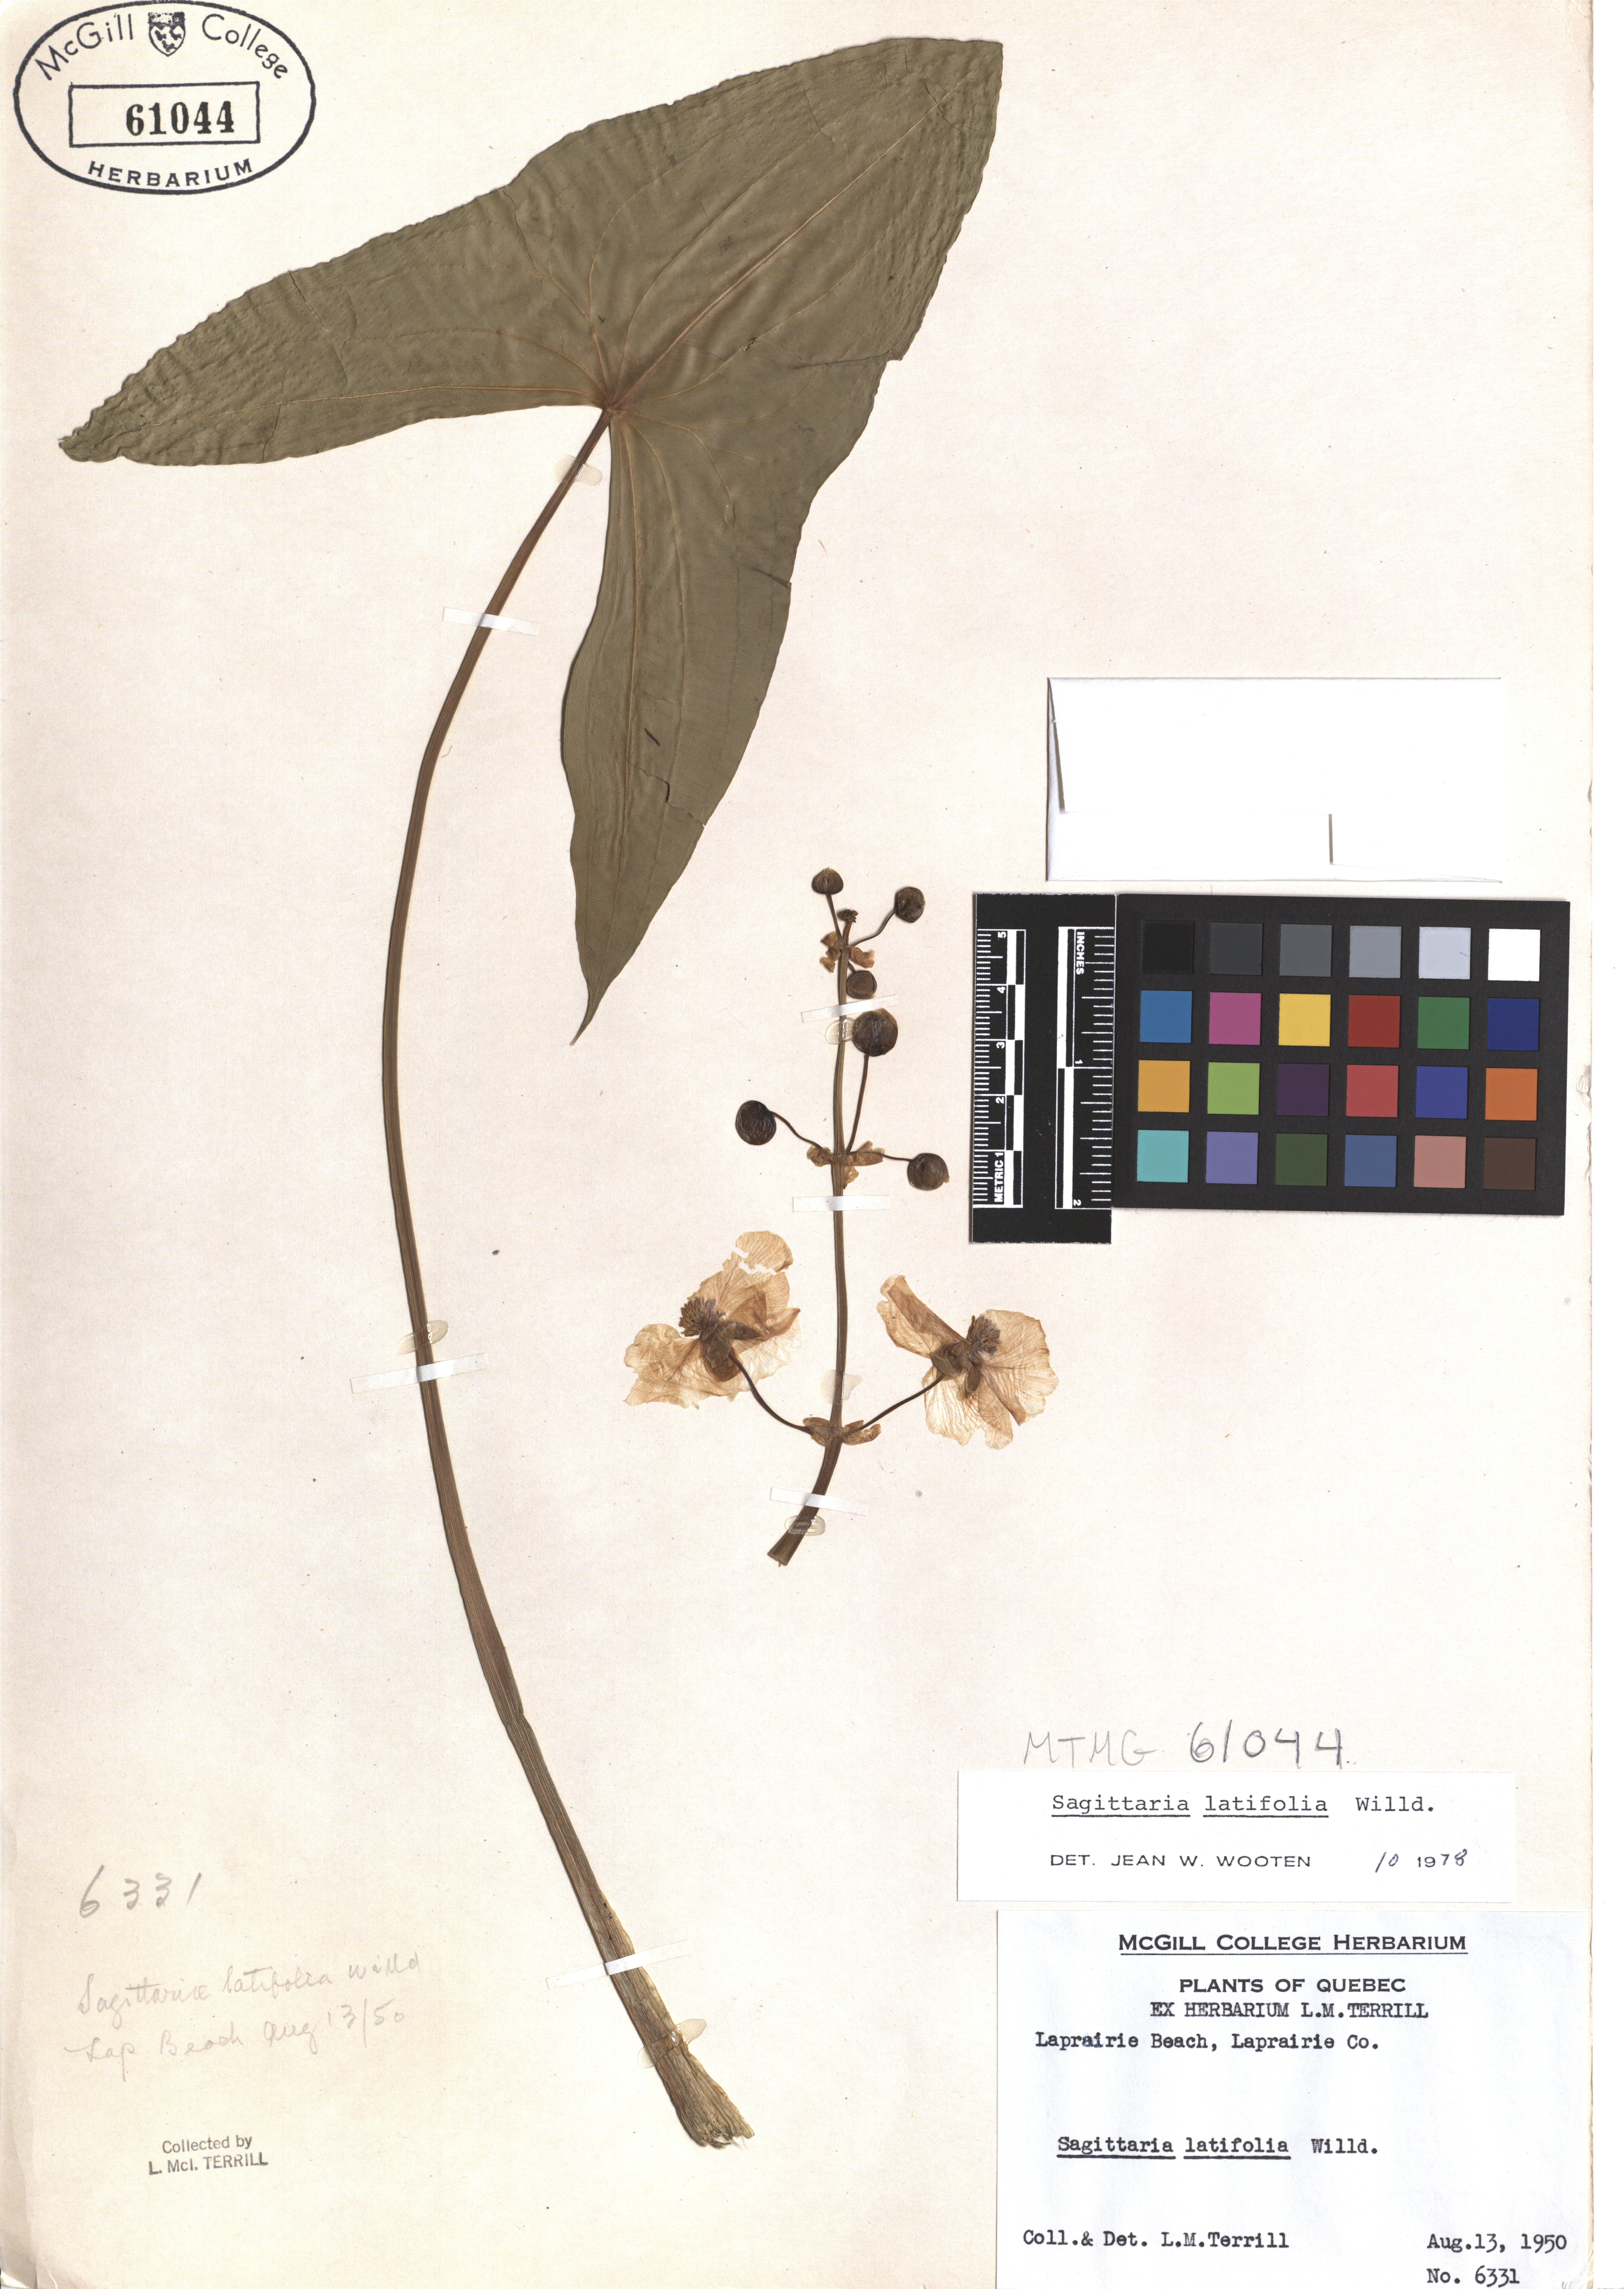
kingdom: Plantae
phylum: Tracheophyta
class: Liliopsida
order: Alismatales
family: Alismataceae
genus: Sagittaria
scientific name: Sagittaria latifolia
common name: Duck-potato
